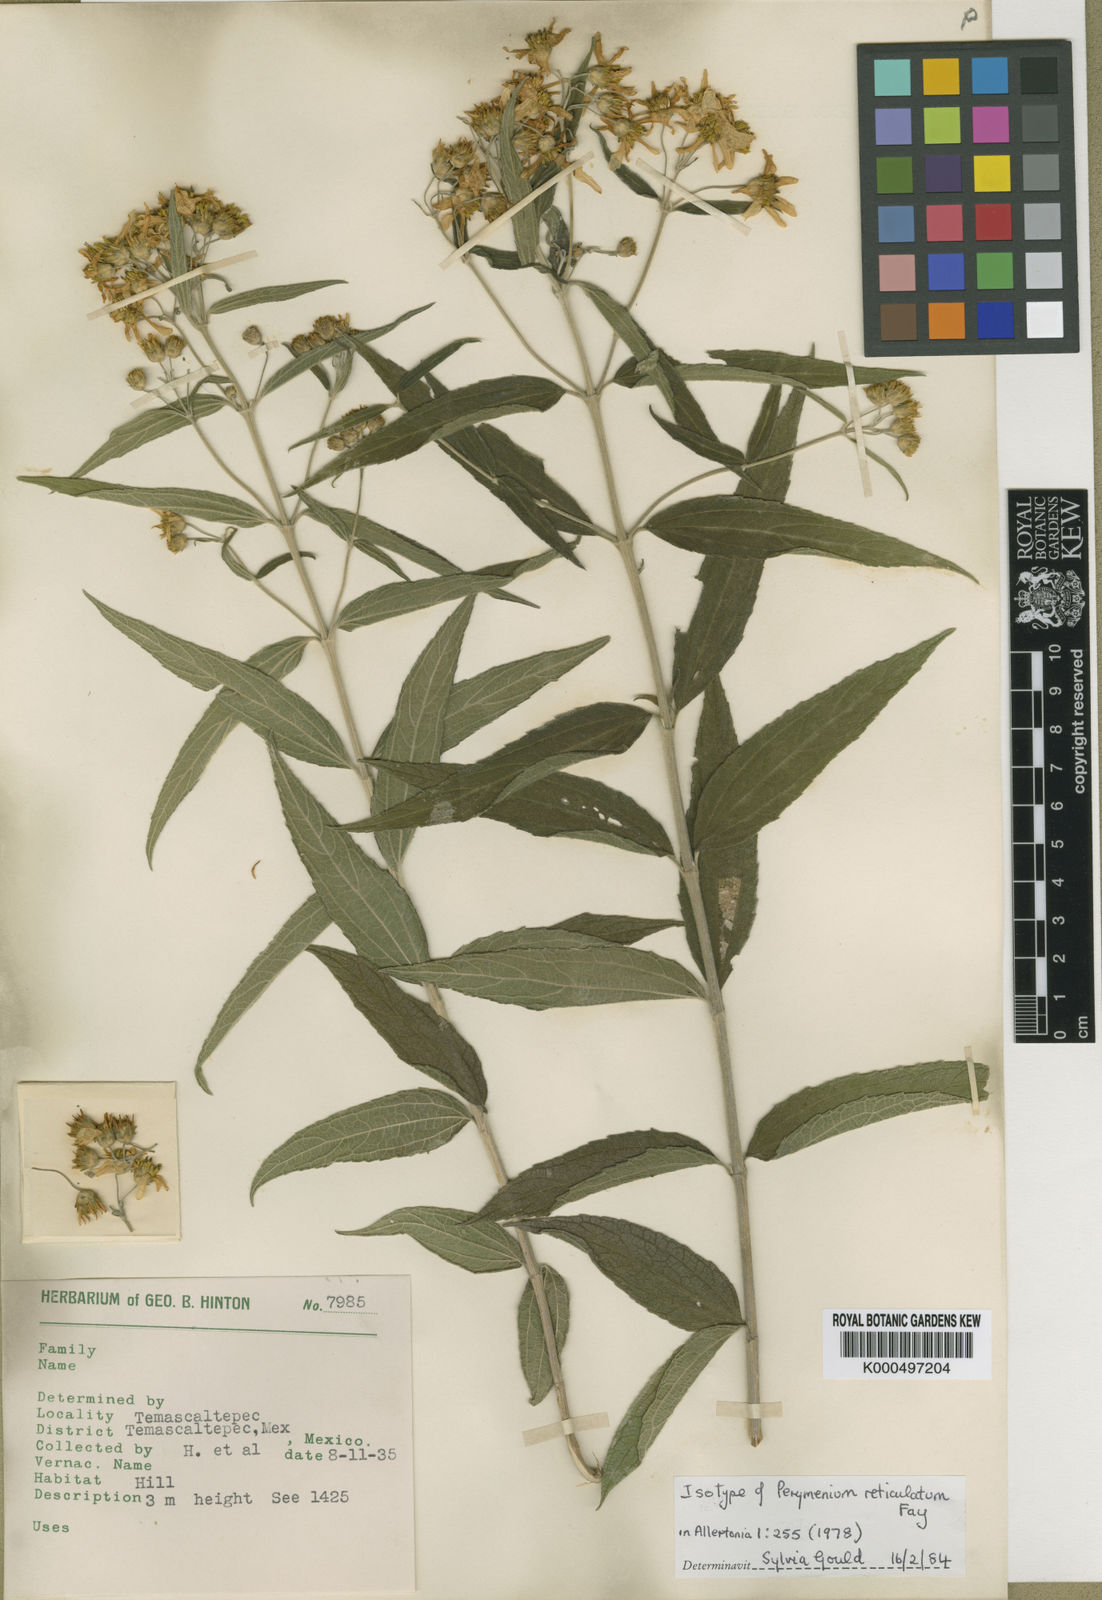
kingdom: Plantae
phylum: Tracheophyta
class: Magnoliopsida
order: Asterales
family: Asteraceae
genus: Perymenium
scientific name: Perymenium reticulatum
